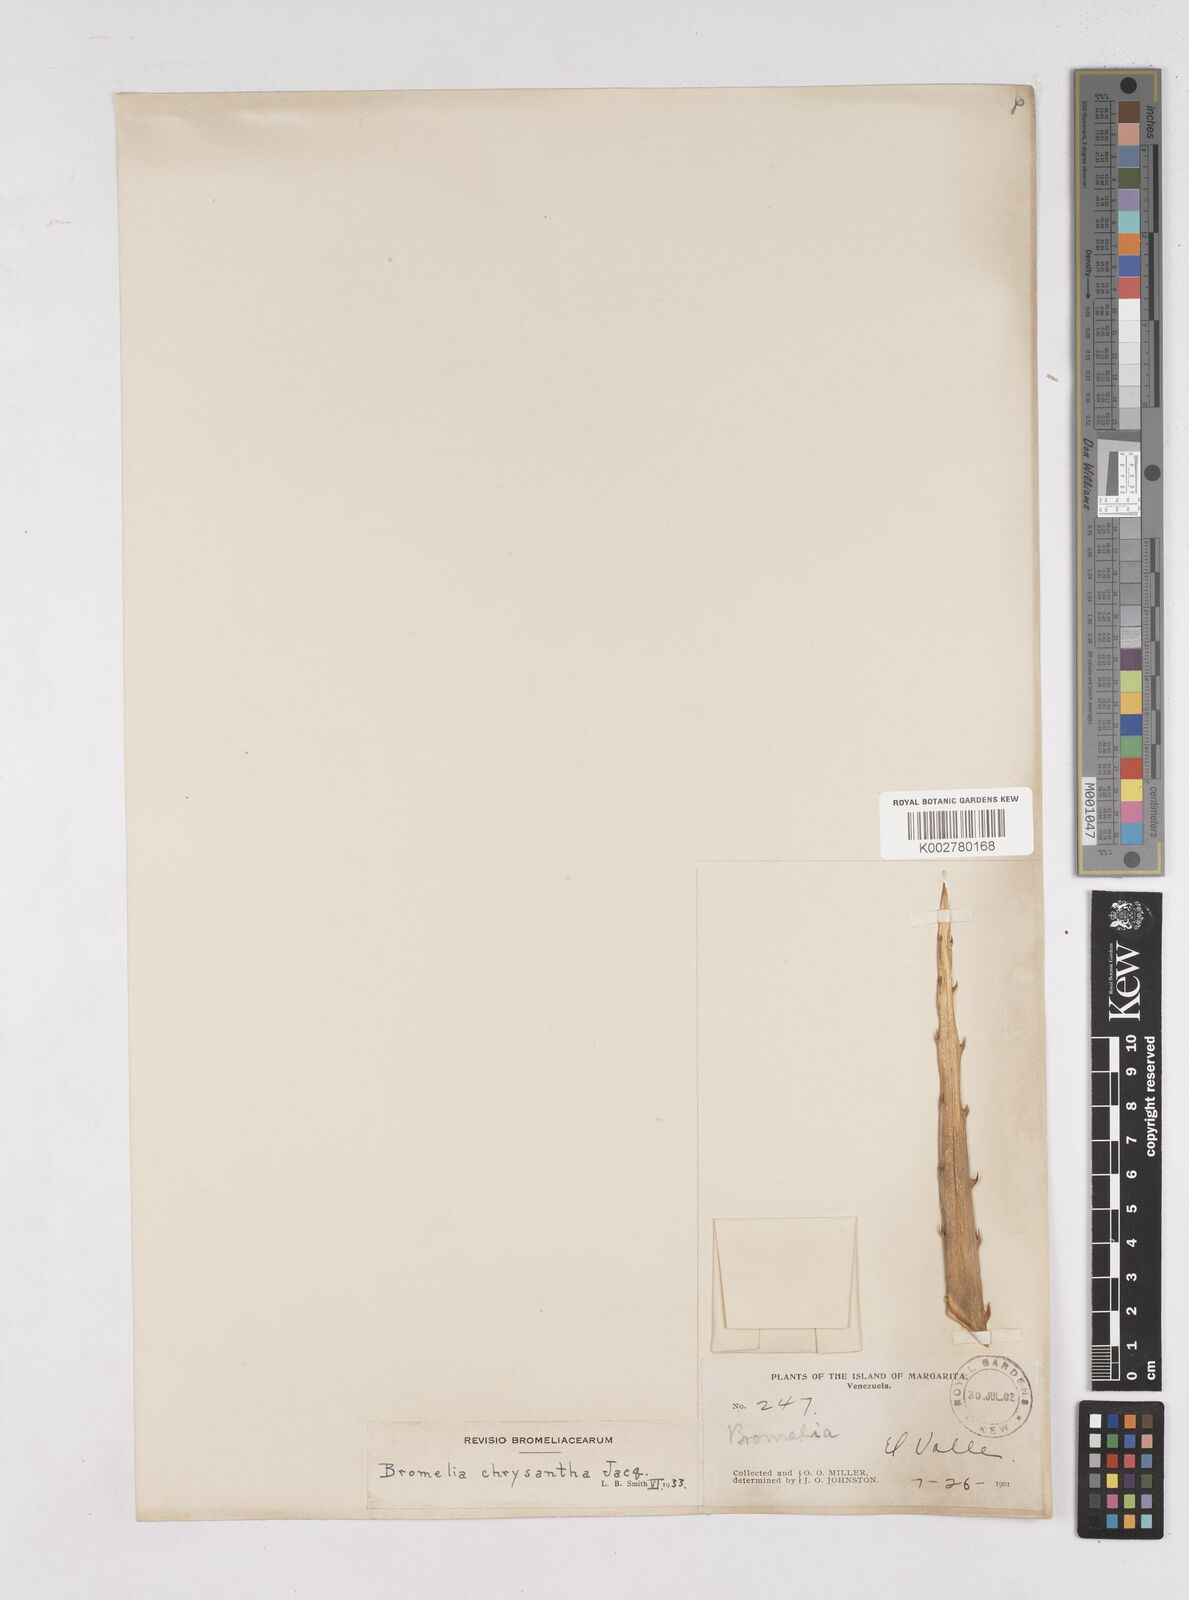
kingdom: Plantae
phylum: Tracheophyta
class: Liliopsida
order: Poales
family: Bromeliaceae
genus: Bromelia
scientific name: Bromelia chrysantha
